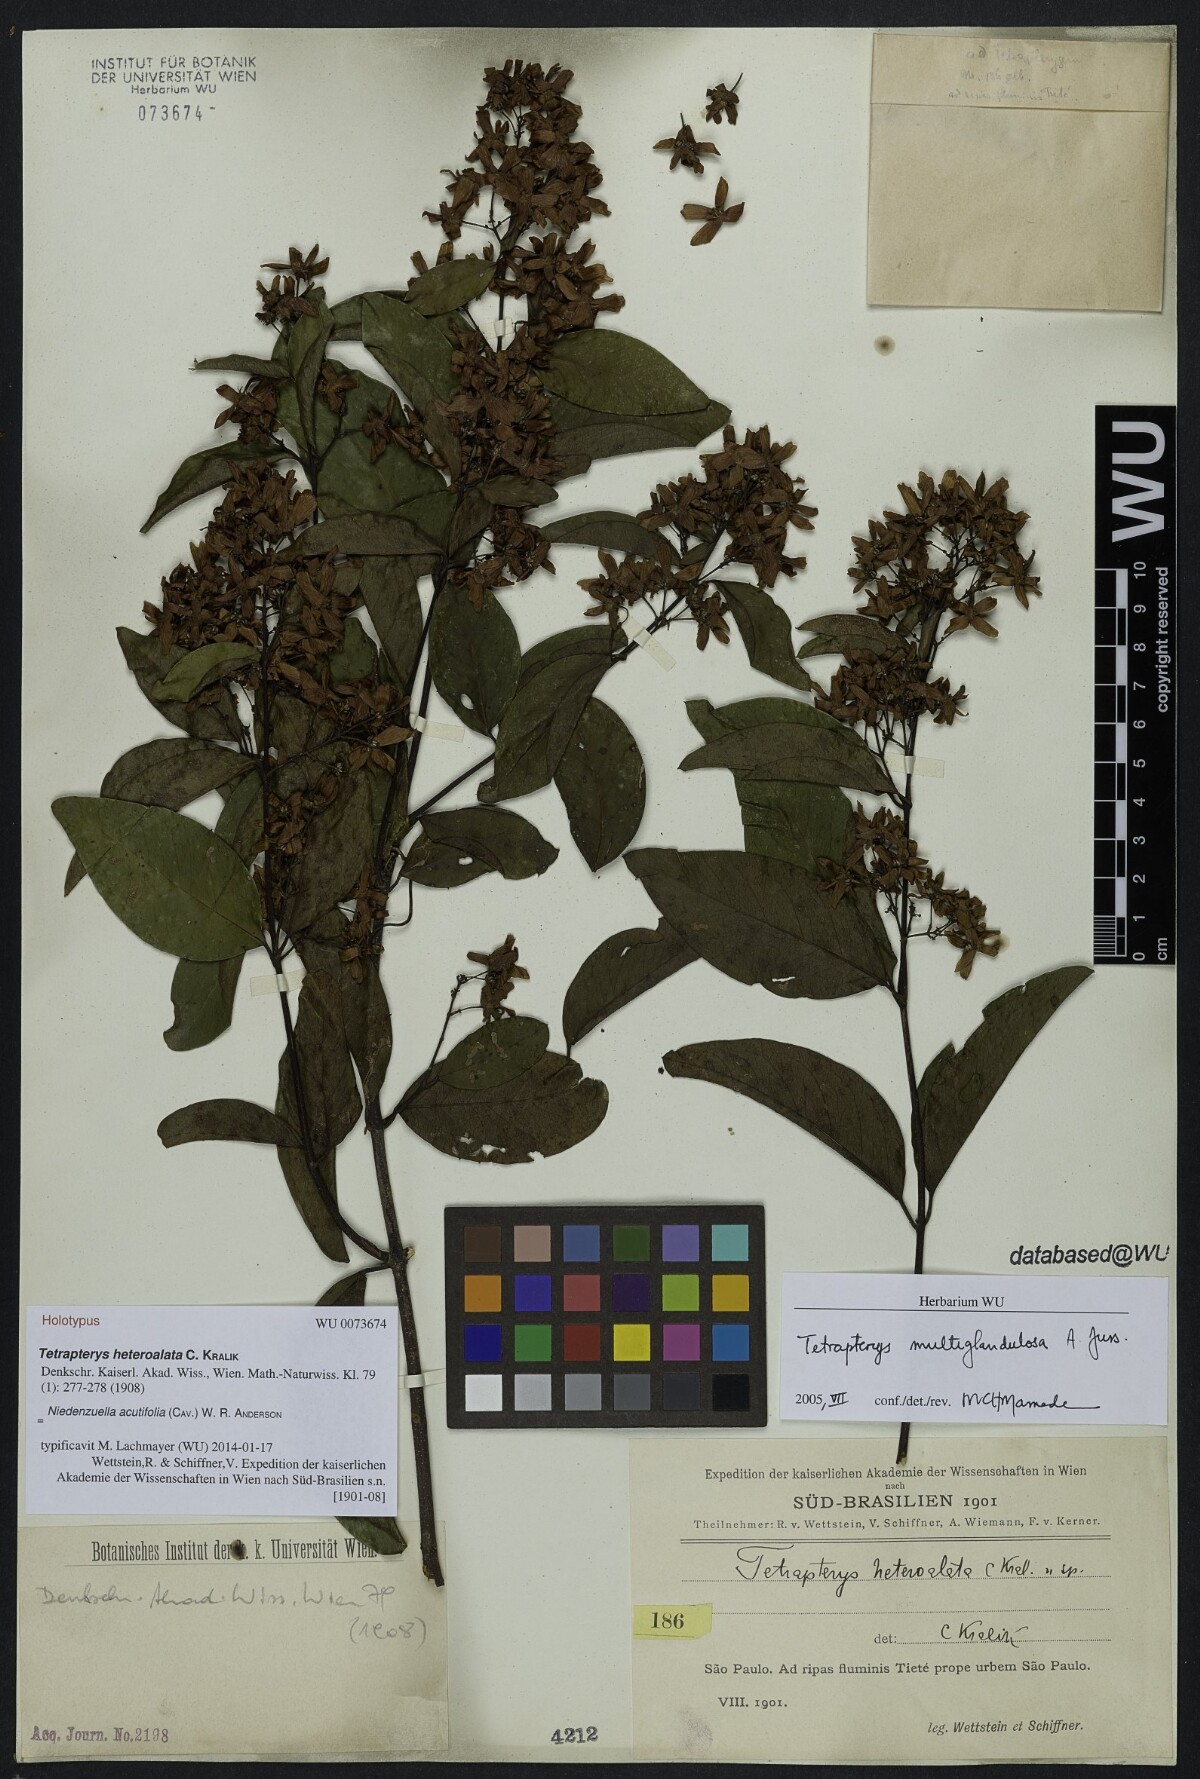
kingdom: Plantae
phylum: Tracheophyta
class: Magnoliopsida
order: Malpighiales
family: Malpighiaceae
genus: Niedenzuella
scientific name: Niedenzuella acutifolia
